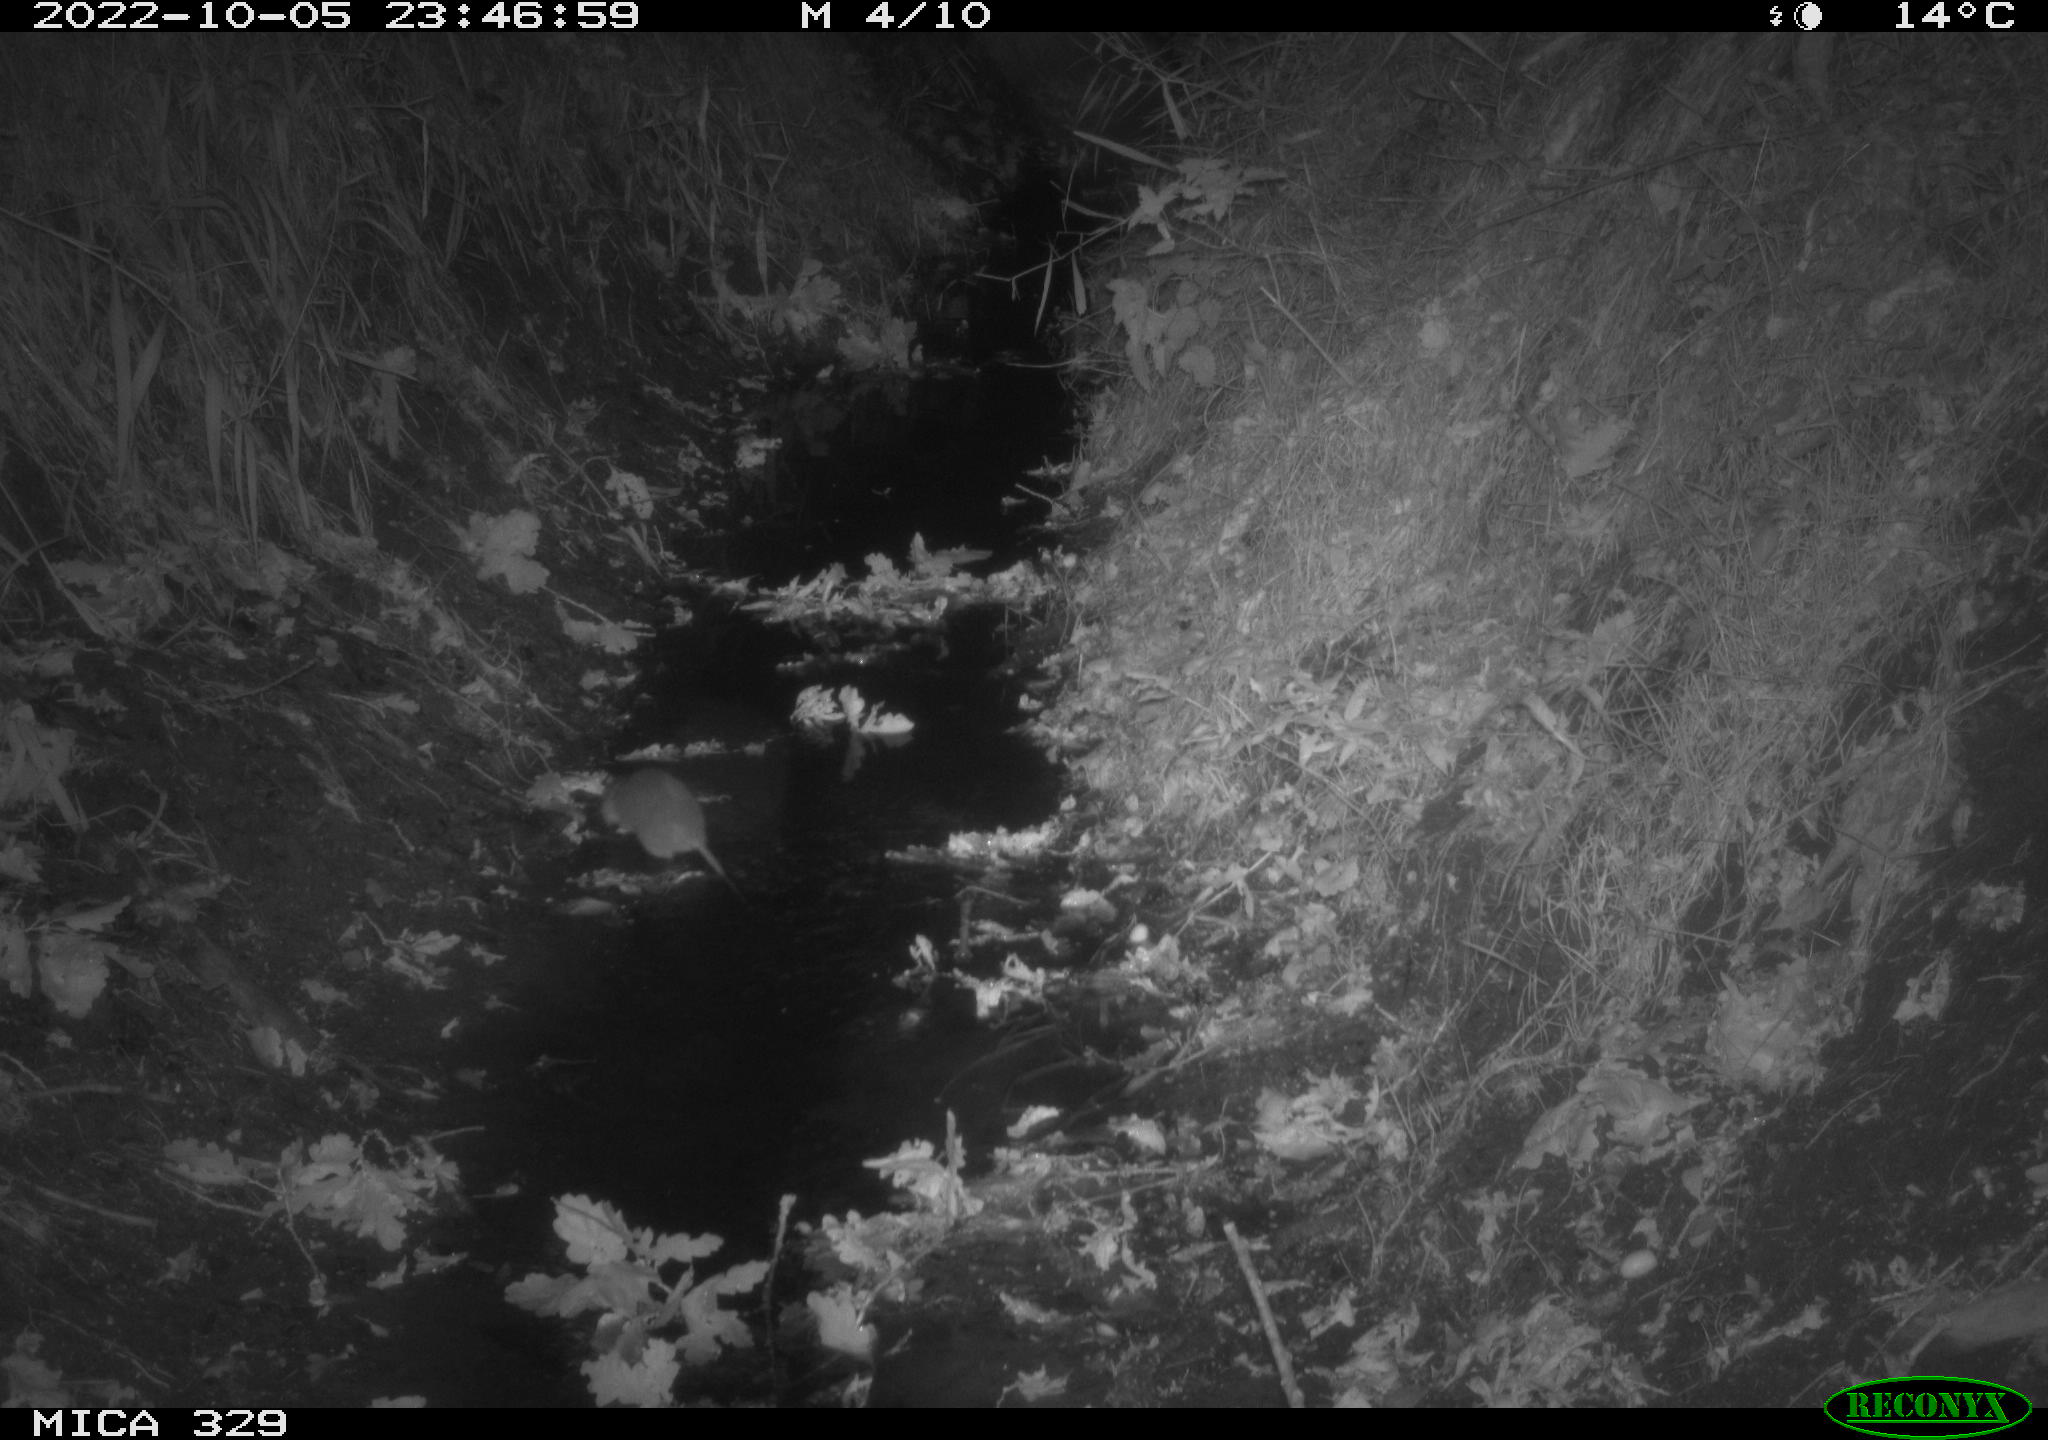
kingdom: Animalia
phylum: Chordata
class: Mammalia
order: Rodentia
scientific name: Rodentia
